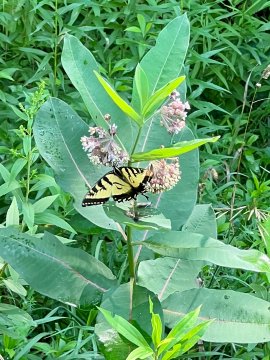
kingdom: Animalia
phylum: Arthropoda
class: Insecta
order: Lepidoptera
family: Papilionidae
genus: Pterourus
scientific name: Pterourus
